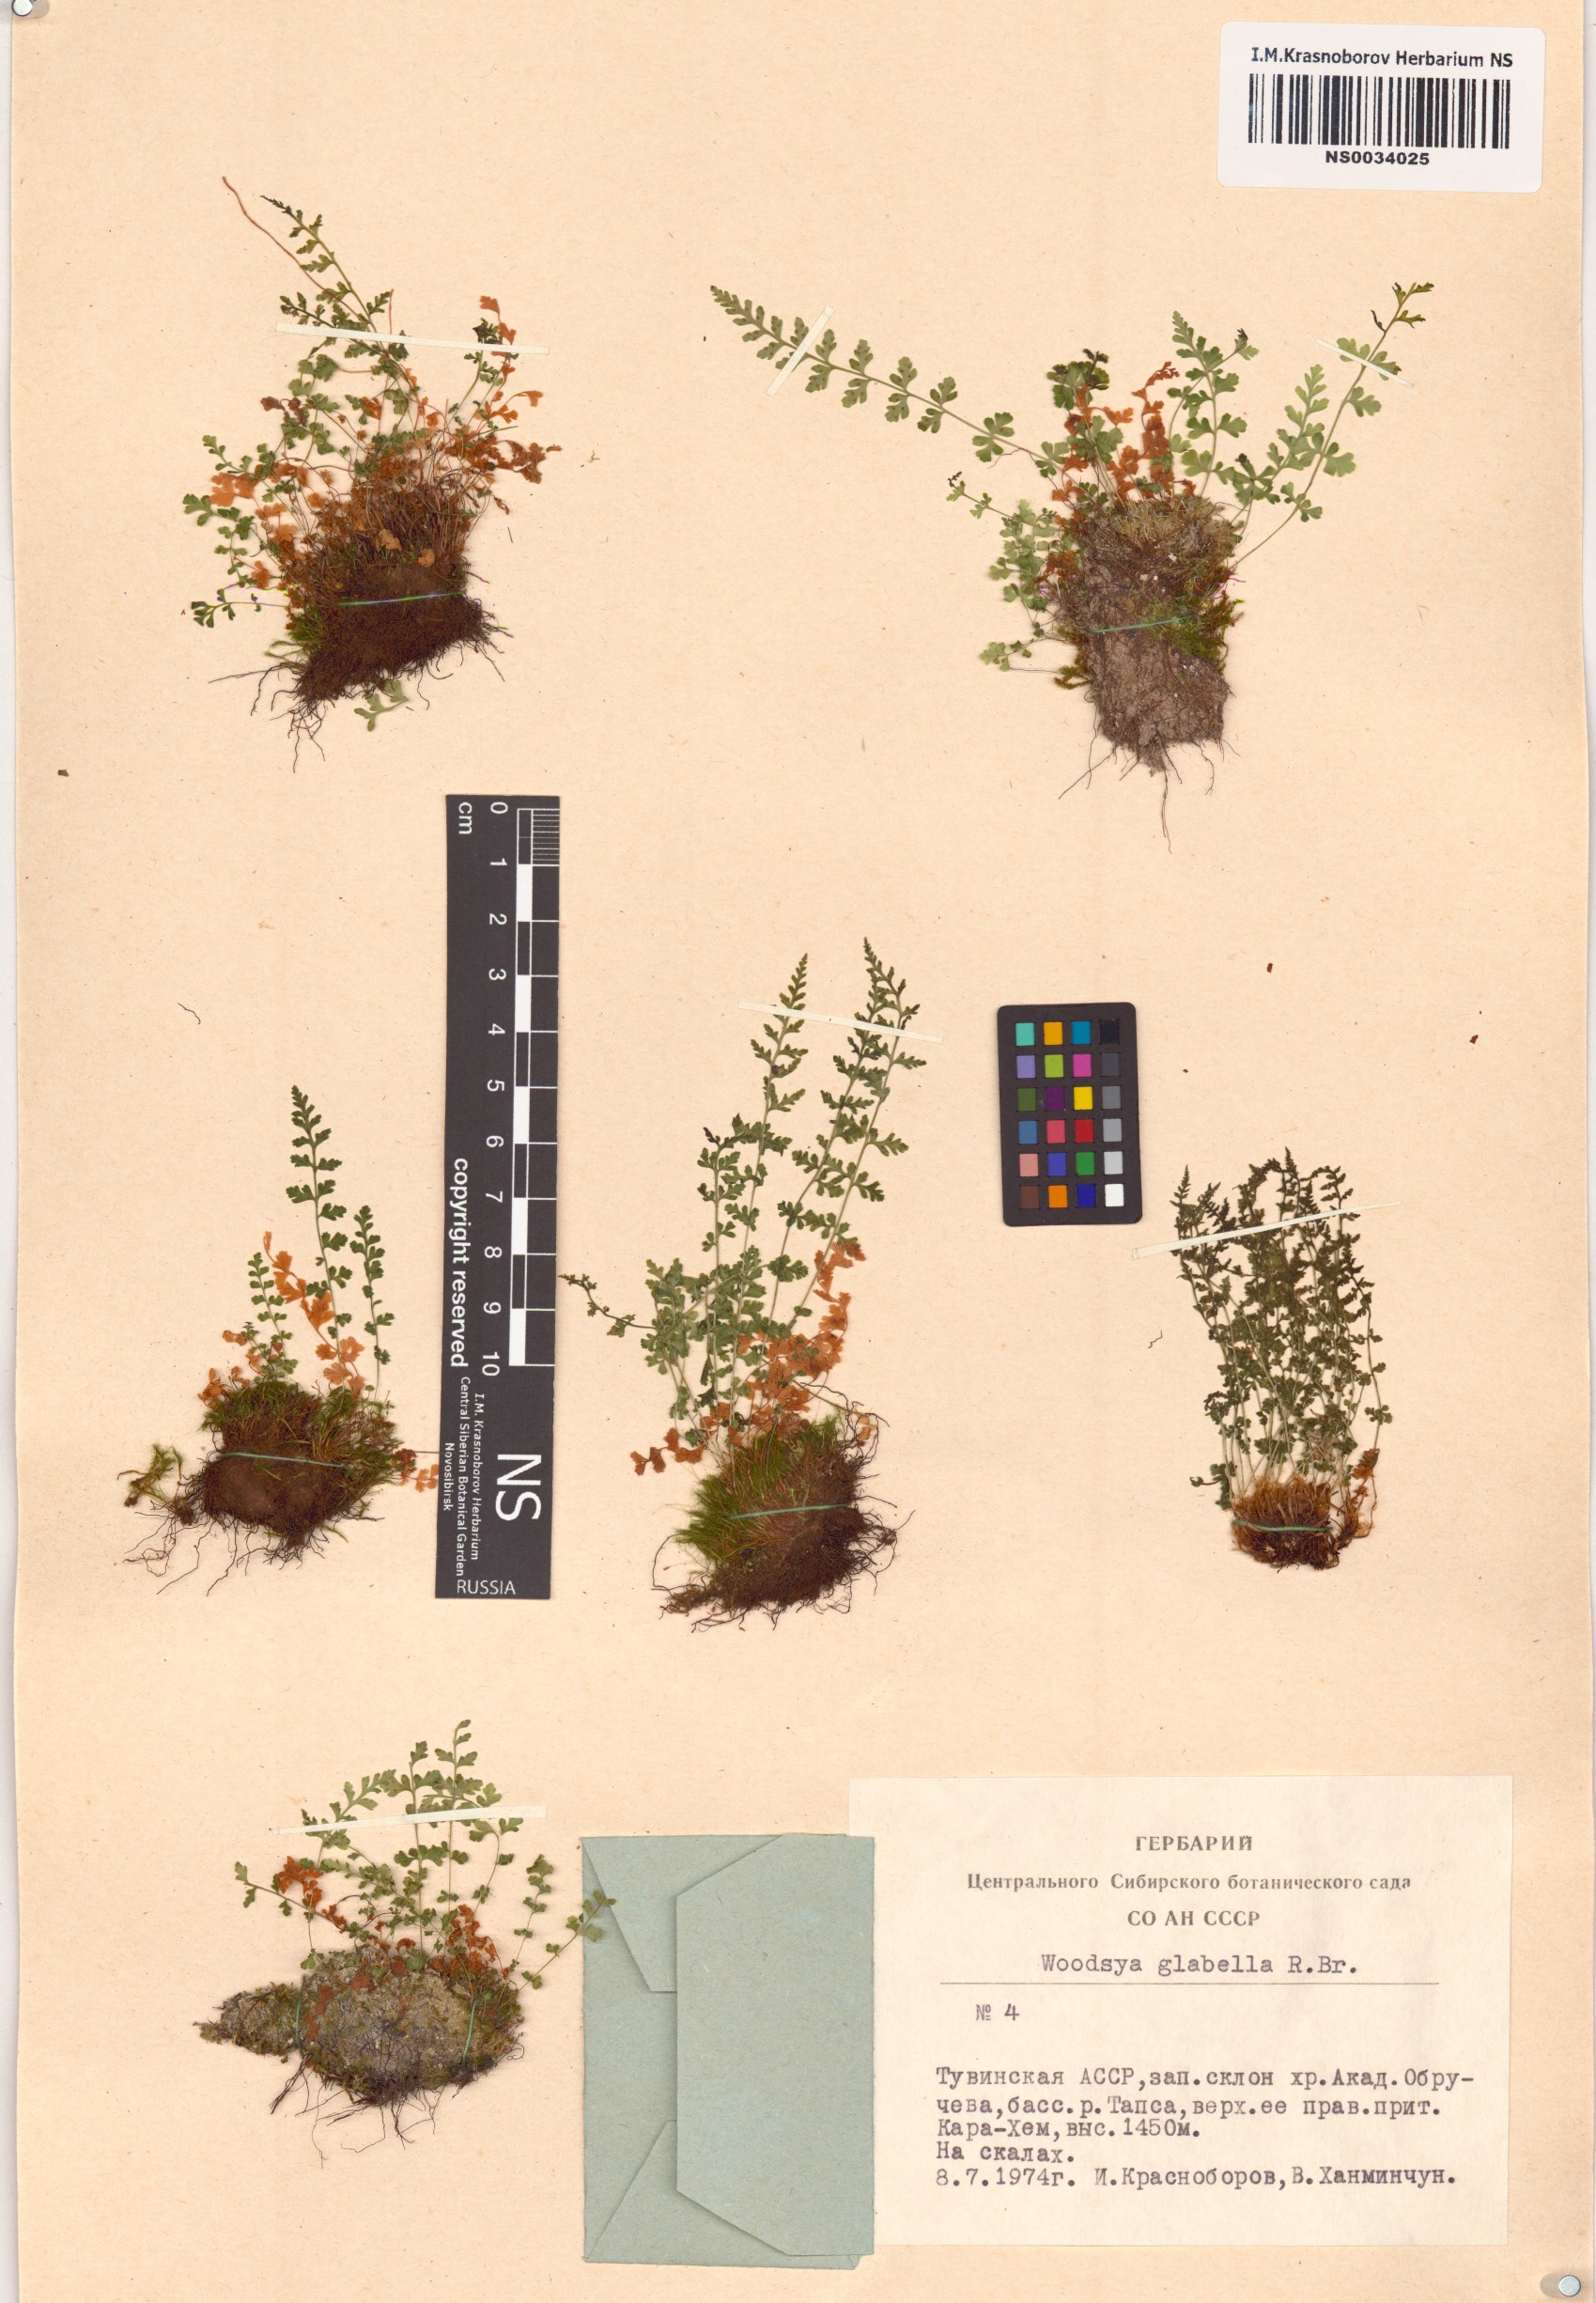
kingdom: Plantae
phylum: Tracheophyta
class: Polypodiopsida
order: Polypodiales
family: Woodsiaceae
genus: Woodsia
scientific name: Woodsia glabella
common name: Smooth woodsia
